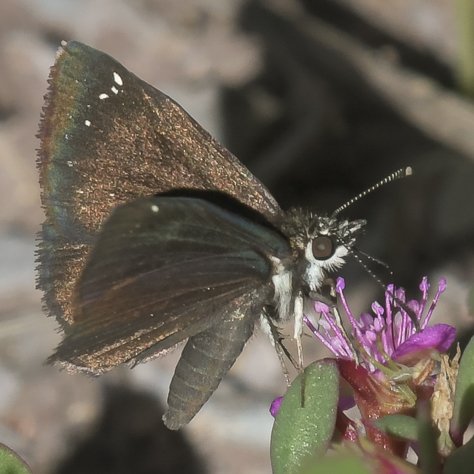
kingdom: Animalia
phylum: Arthropoda
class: Insecta
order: Lepidoptera
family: Hesperiidae
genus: Pholisora
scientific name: Pholisora catullus
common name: Common Sootywing
